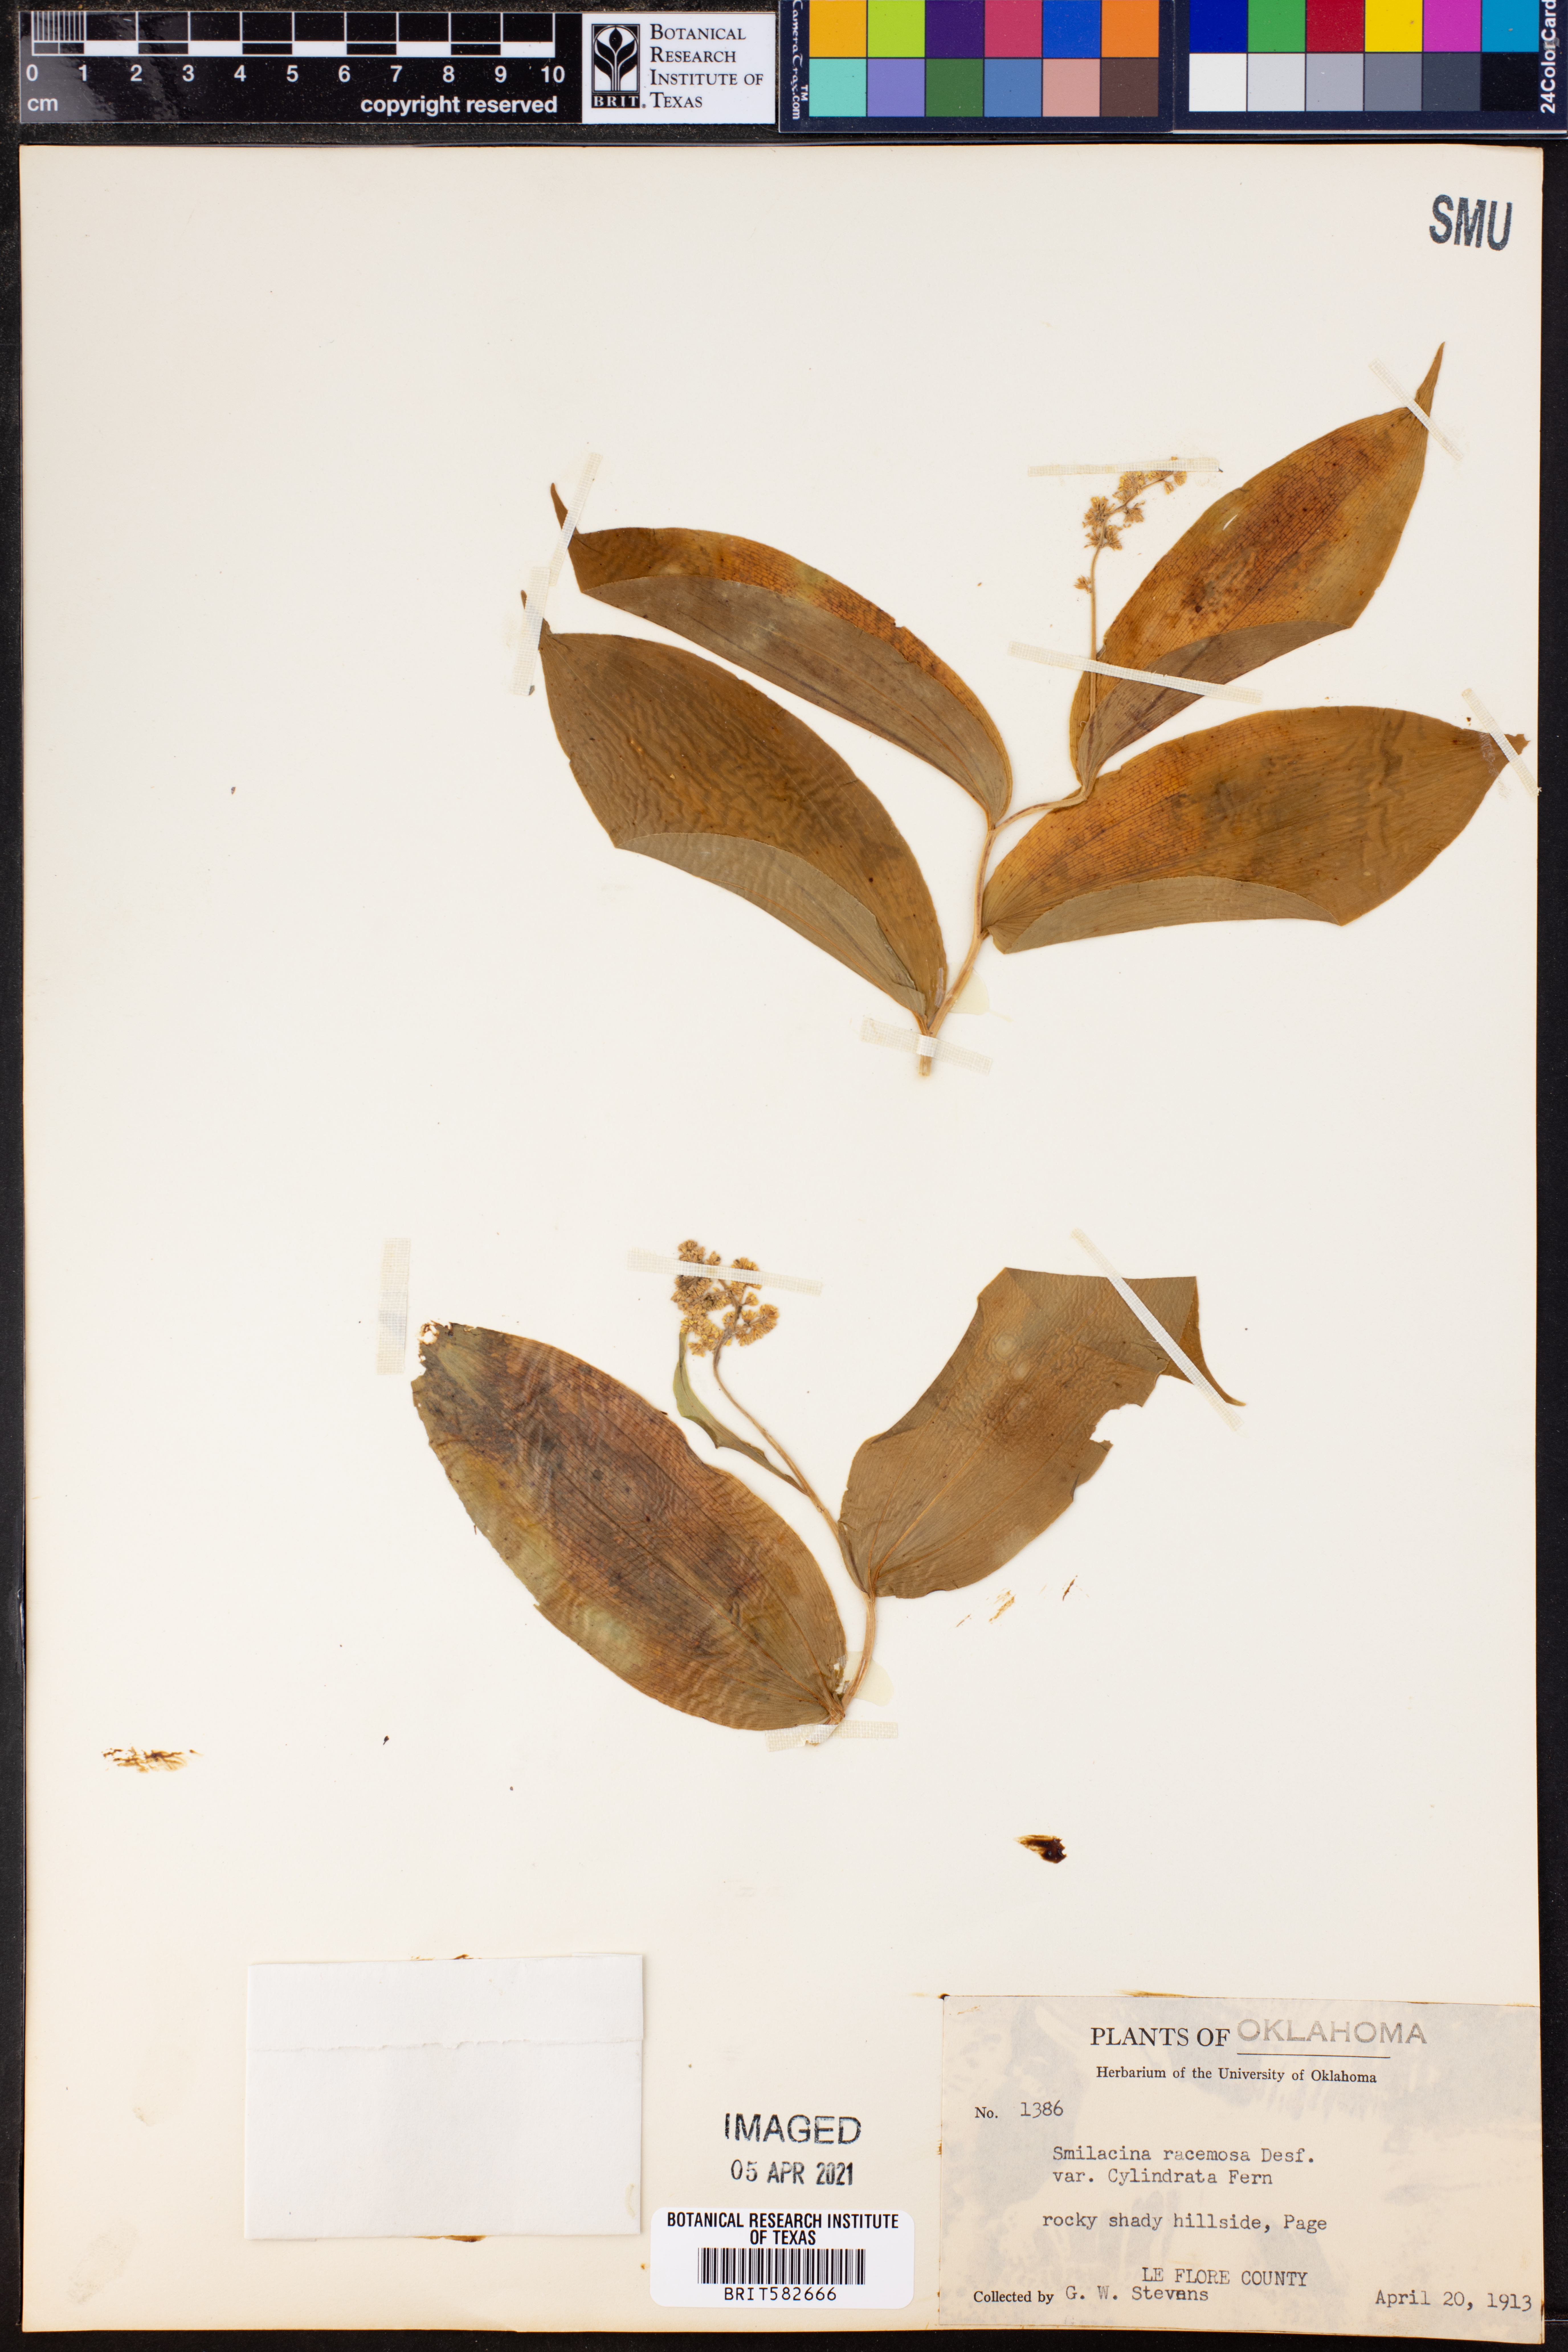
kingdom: Plantae
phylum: Tracheophyta
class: Liliopsida
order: Asparagales
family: Asparagaceae
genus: Maianthemum
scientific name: Maianthemum racemosum
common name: False spikenard
